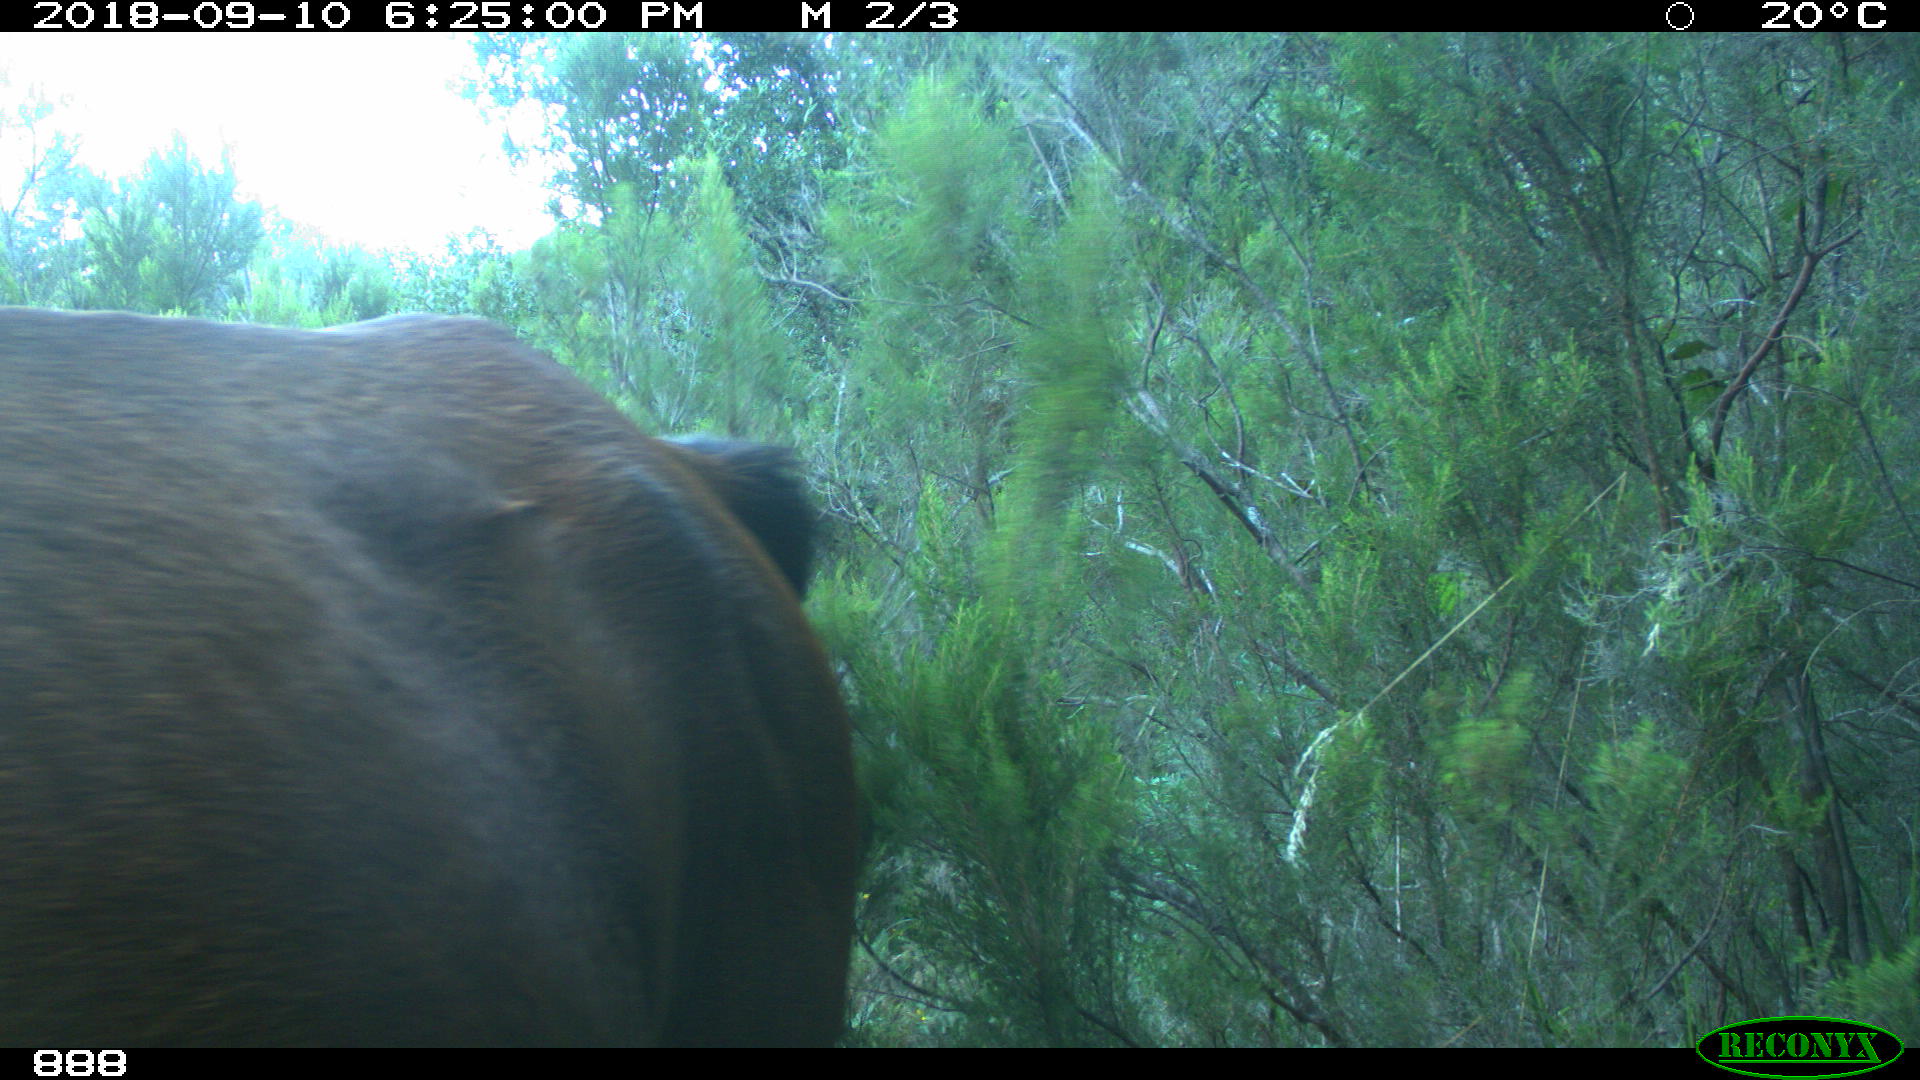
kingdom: Animalia
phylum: Chordata
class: Mammalia
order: Perissodactyla
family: Equidae
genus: Equus
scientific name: Equus caballus
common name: Horse
